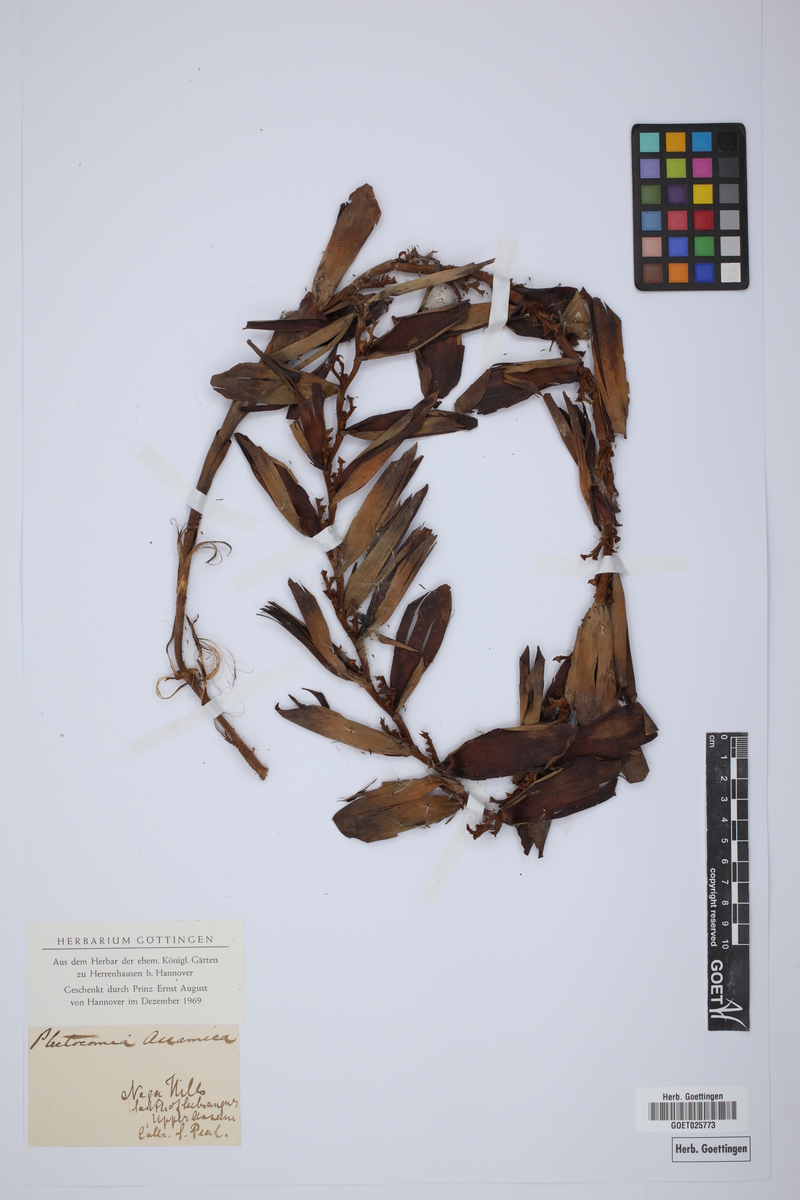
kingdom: Plantae
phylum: Tracheophyta
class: Liliopsida
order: Arecales
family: Arecaceae
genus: Plectocomia
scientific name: Plectocomia assamica
